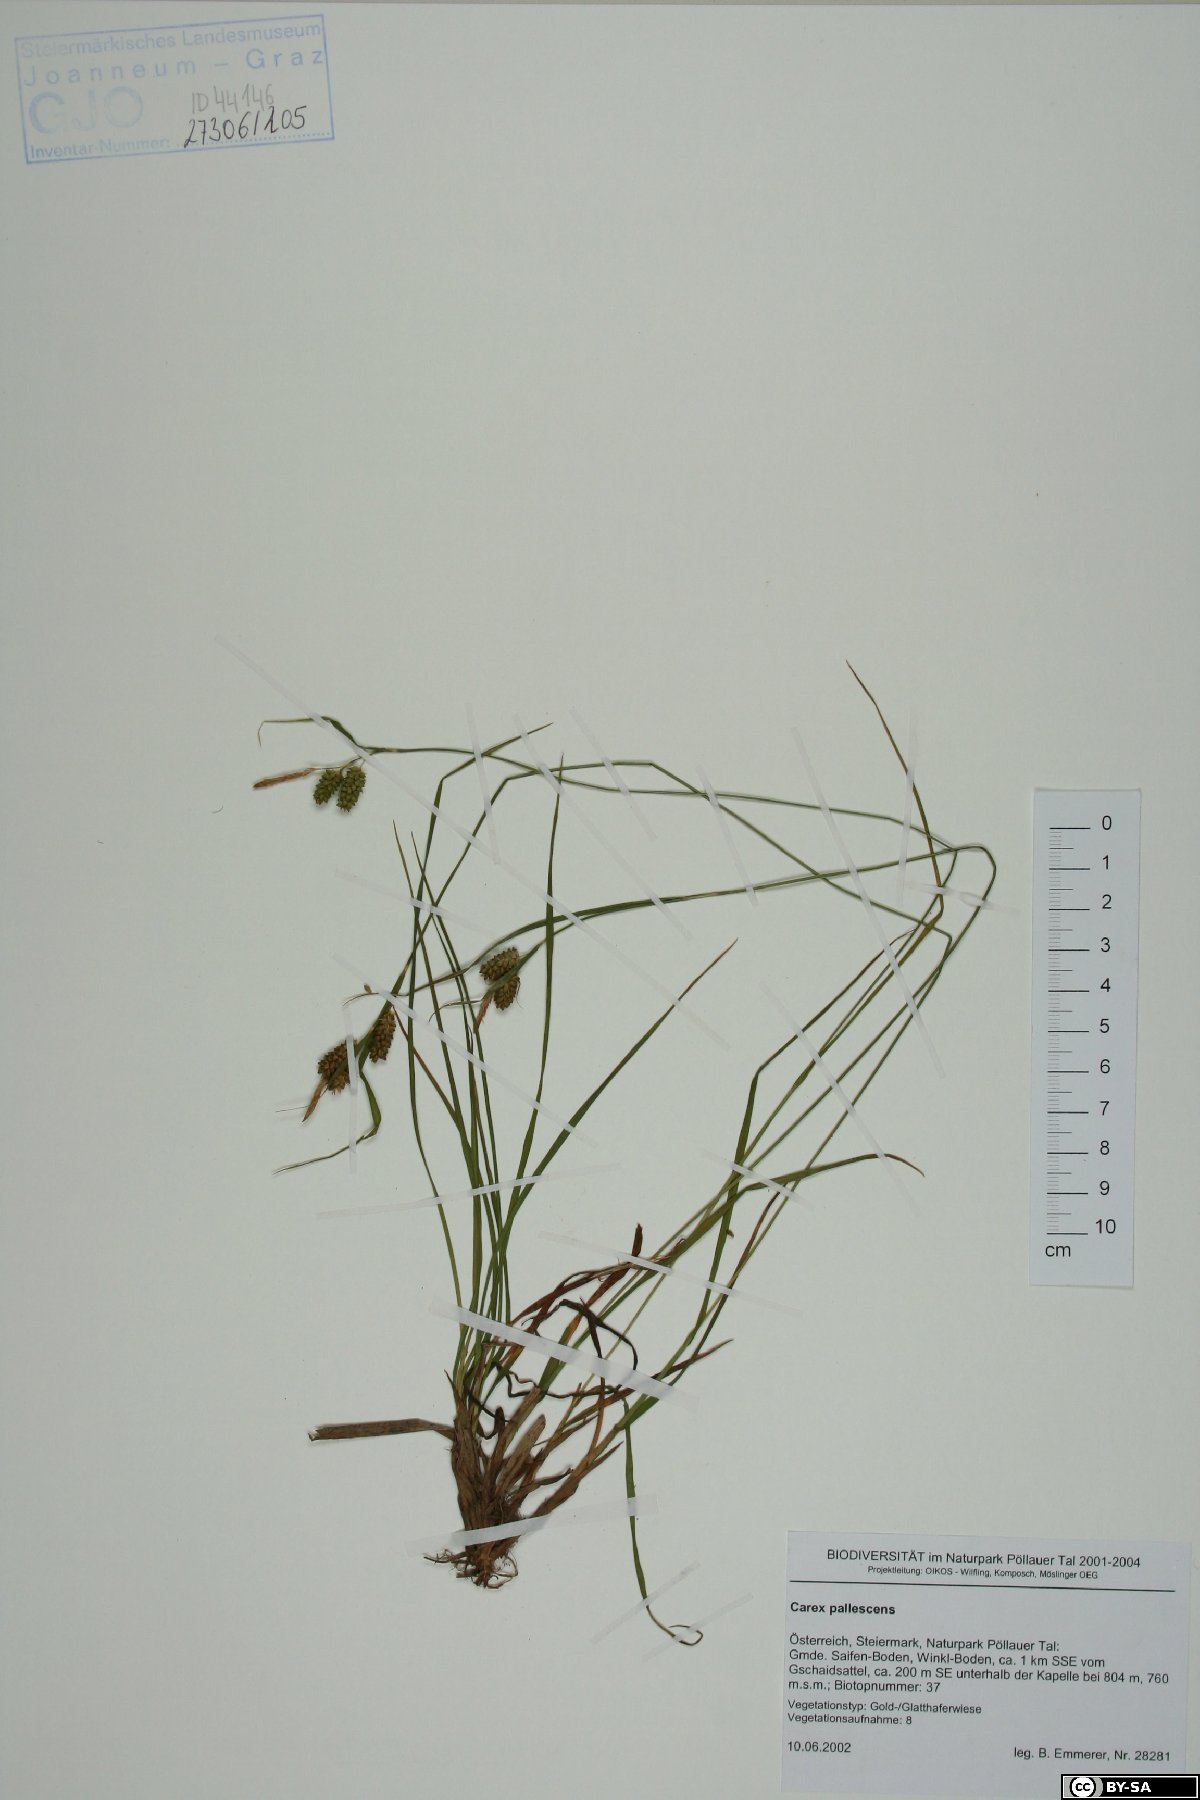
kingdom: Plantae
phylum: Tracheophyta
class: Liliopsida
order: Poales
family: Cyperaceae
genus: Carex
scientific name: Carex pallescens
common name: Pale sedge
